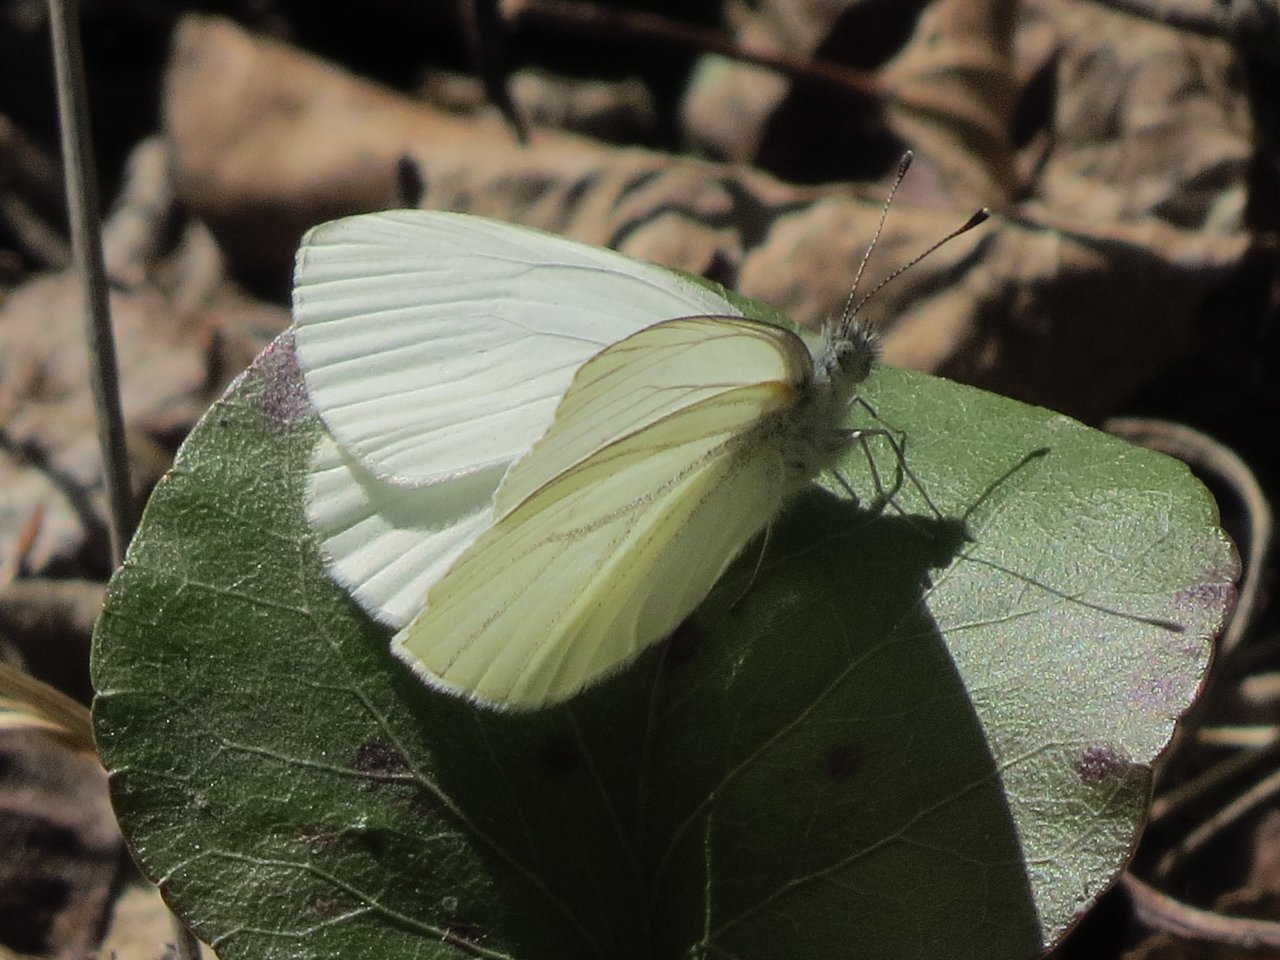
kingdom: Animalia
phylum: Arthropoda
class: Insecta
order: Lepidoptera
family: Pieridae
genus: Pieris
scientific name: Pieris oleracea
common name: Mustard White
